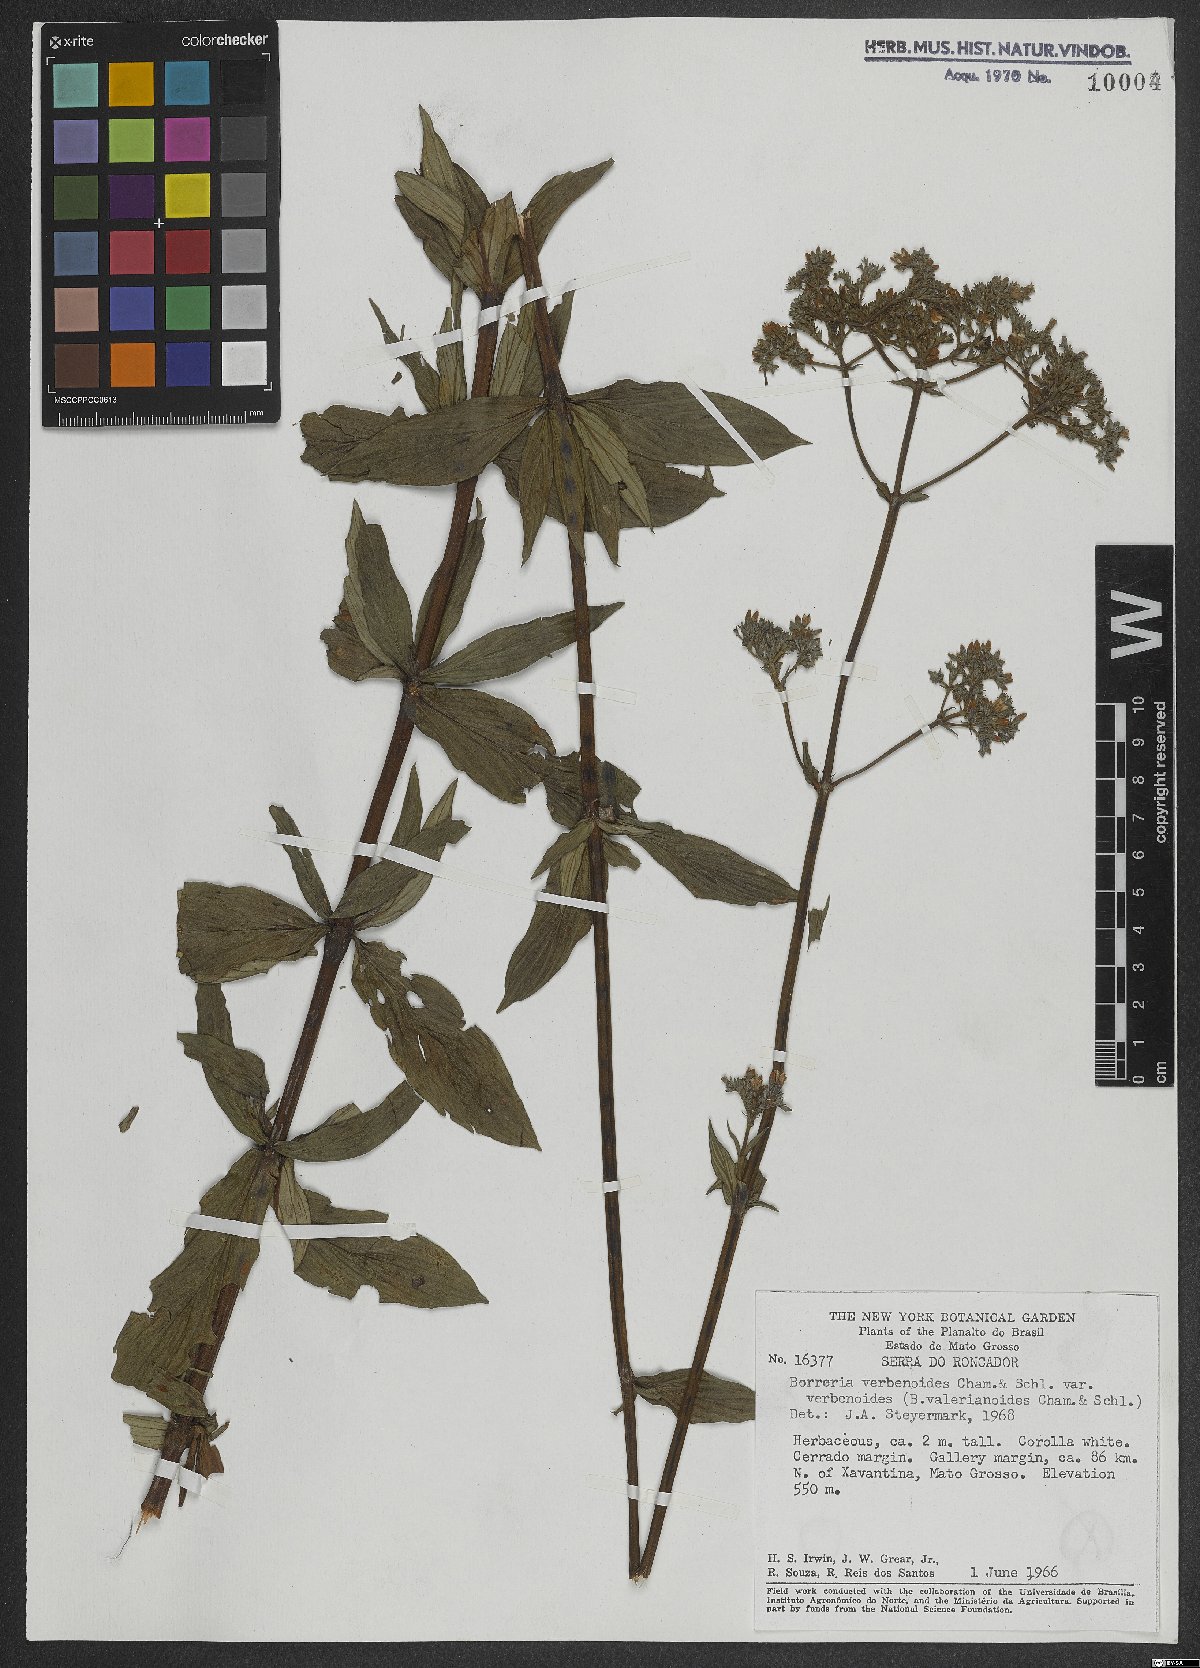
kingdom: Plantae
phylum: Tracheophyta
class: Magnoliopsida
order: Gentianales
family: Rubiaceae
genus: Spermacoce
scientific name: Spermacoce verbenoides
